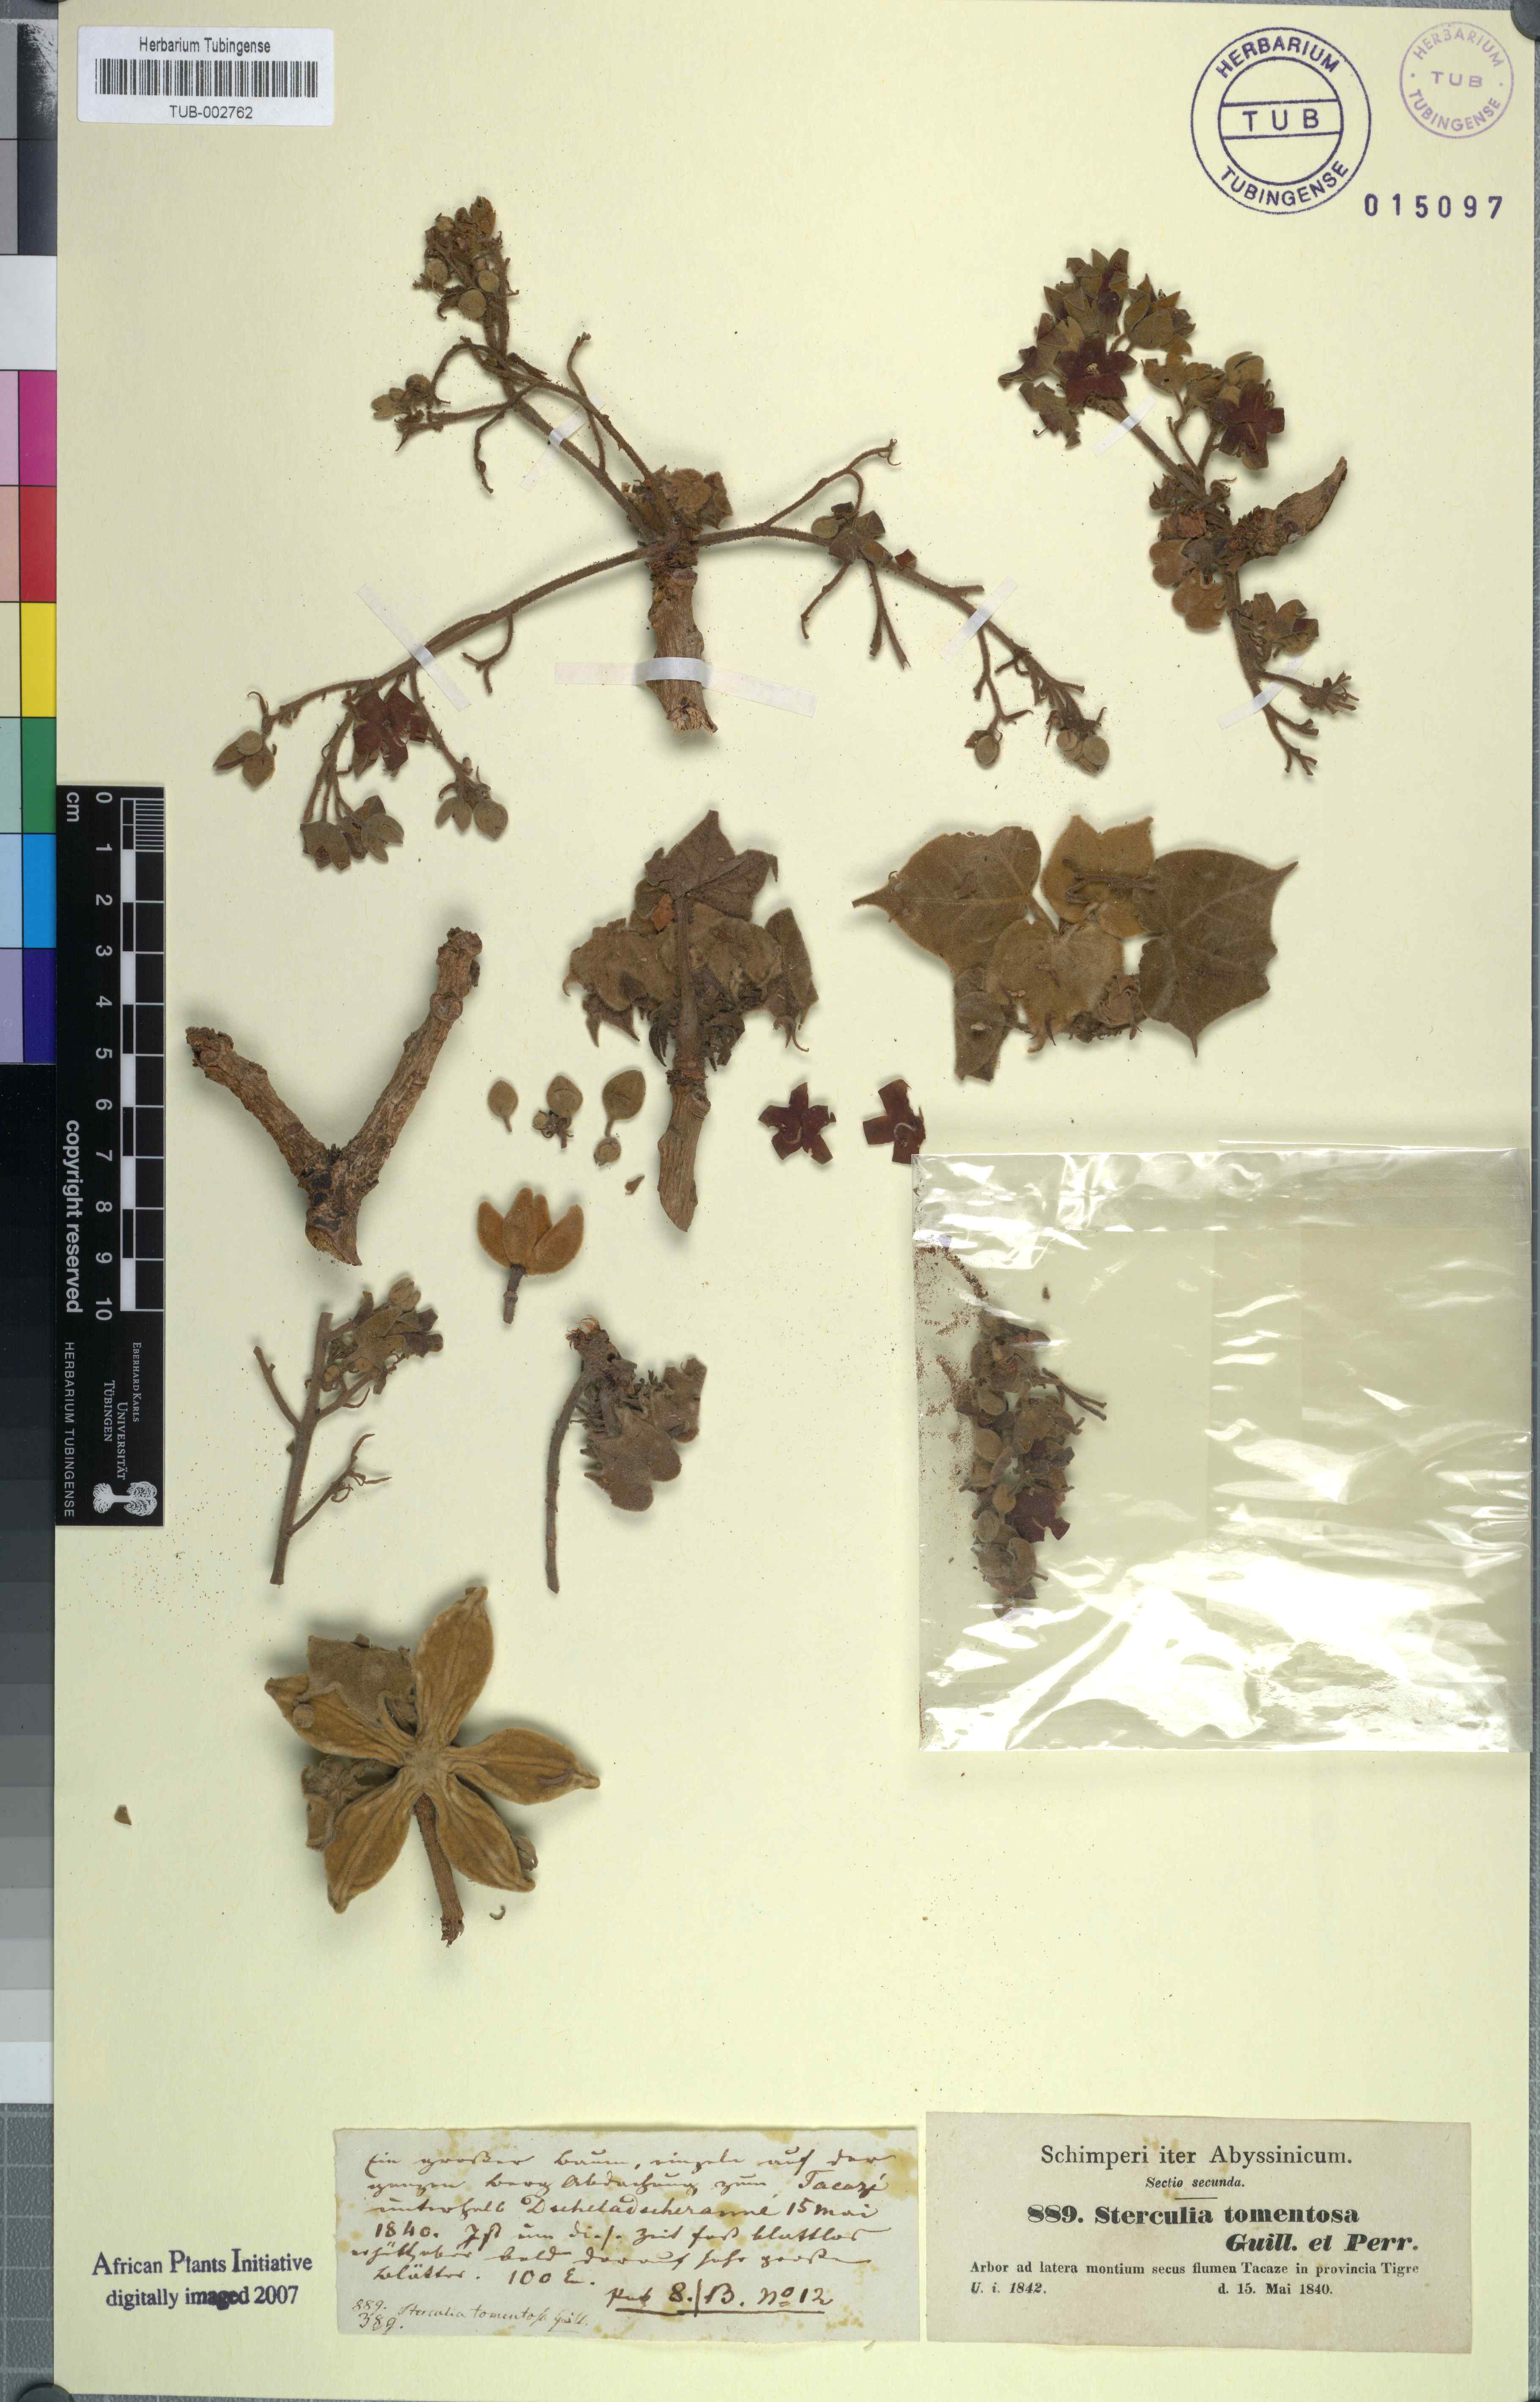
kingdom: Plantae
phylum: Tracheophyta
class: Magnoliopsida
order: Malvales
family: Malvaceae
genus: Sterculia
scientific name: Sterculia setigera
